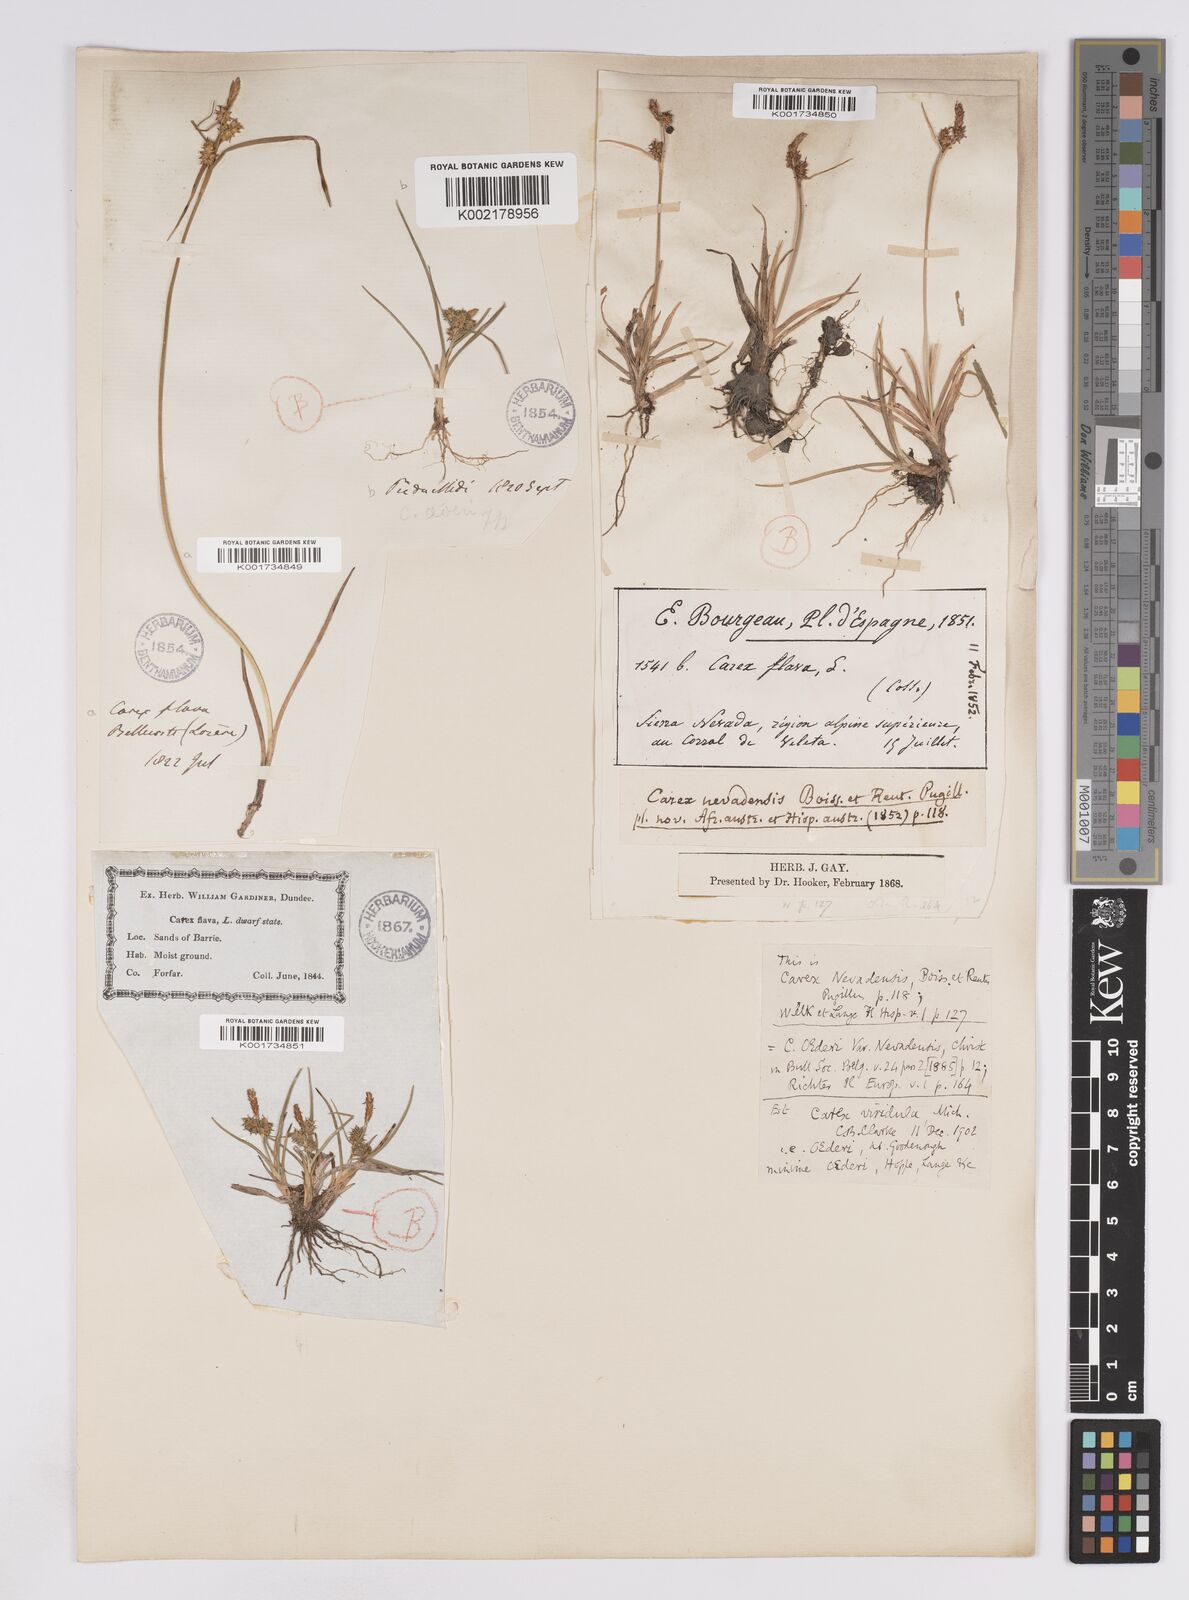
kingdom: Plantae
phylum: Tracheophyta
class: Liliopsida
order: Poales
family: Cyperaceae
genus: Carex
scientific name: Carex lepidocarpa
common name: Long-stalked yellow-sedge
